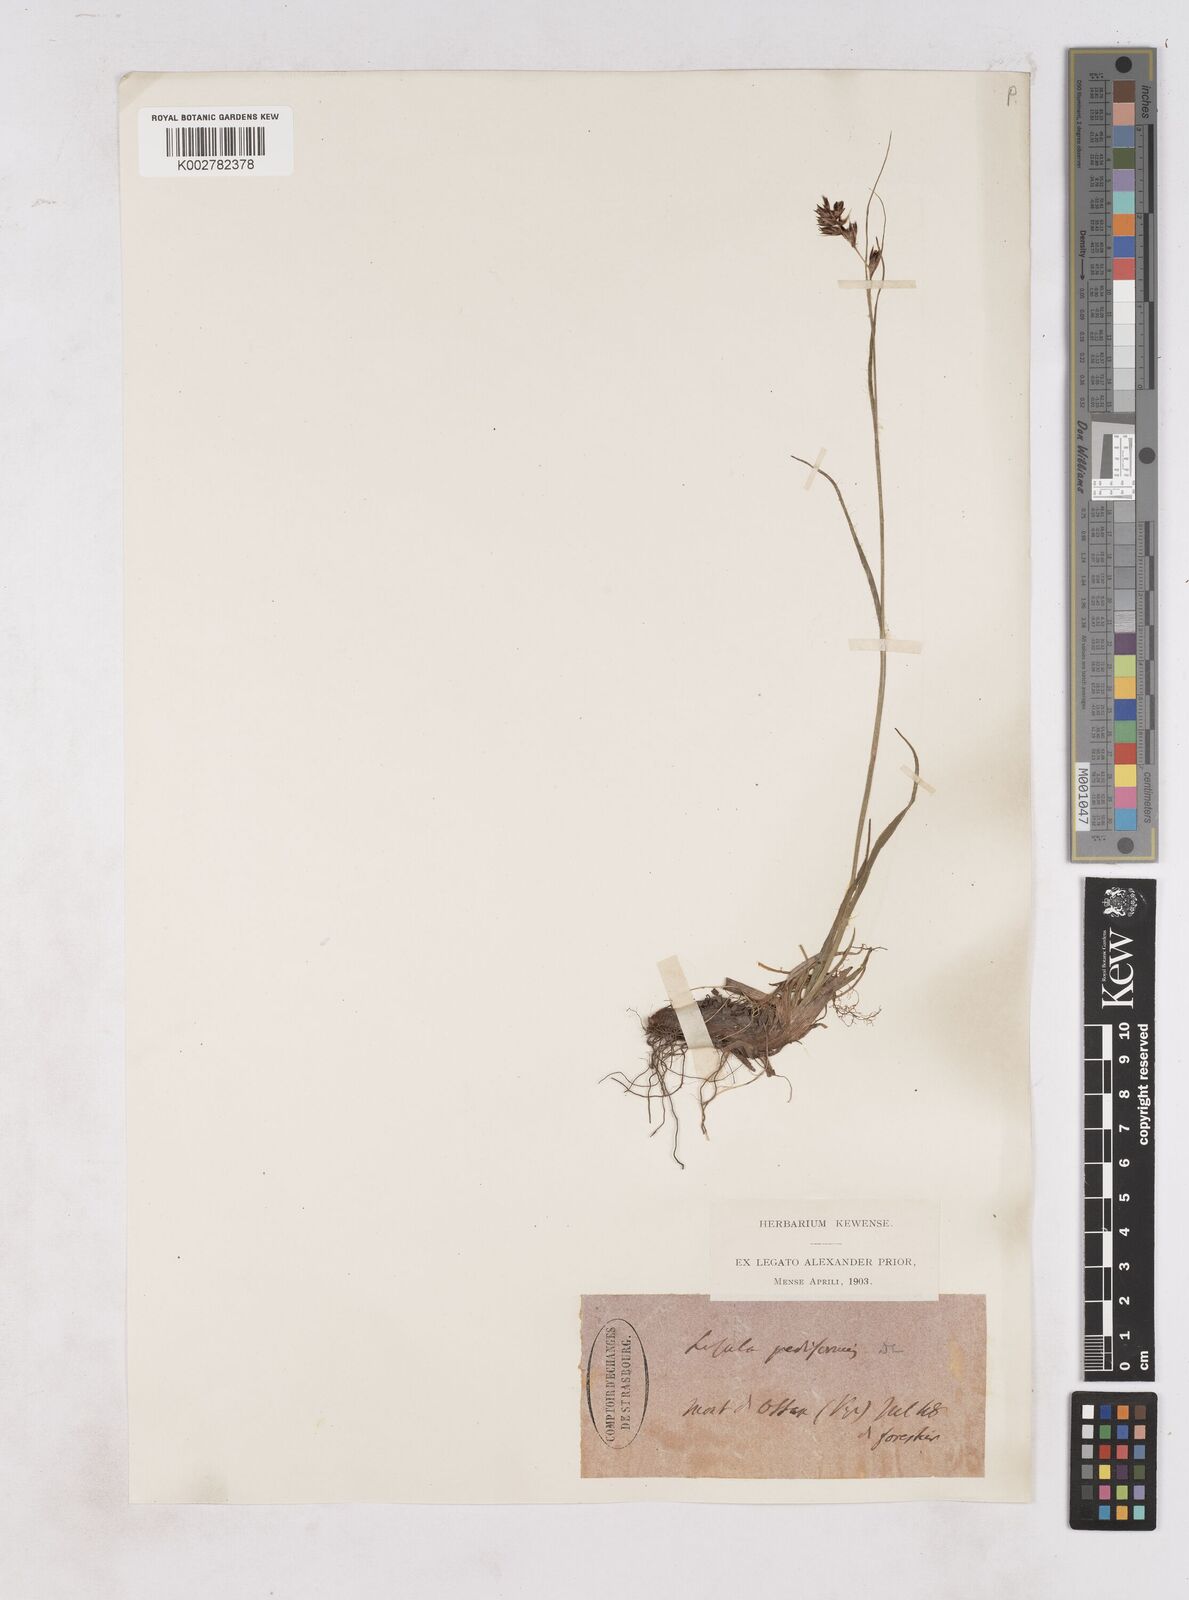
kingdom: Plantae
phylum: Tracheophyta
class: Liliopsida
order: Poales
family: Juncaceae
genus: Luzula
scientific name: Luzula pediformis
